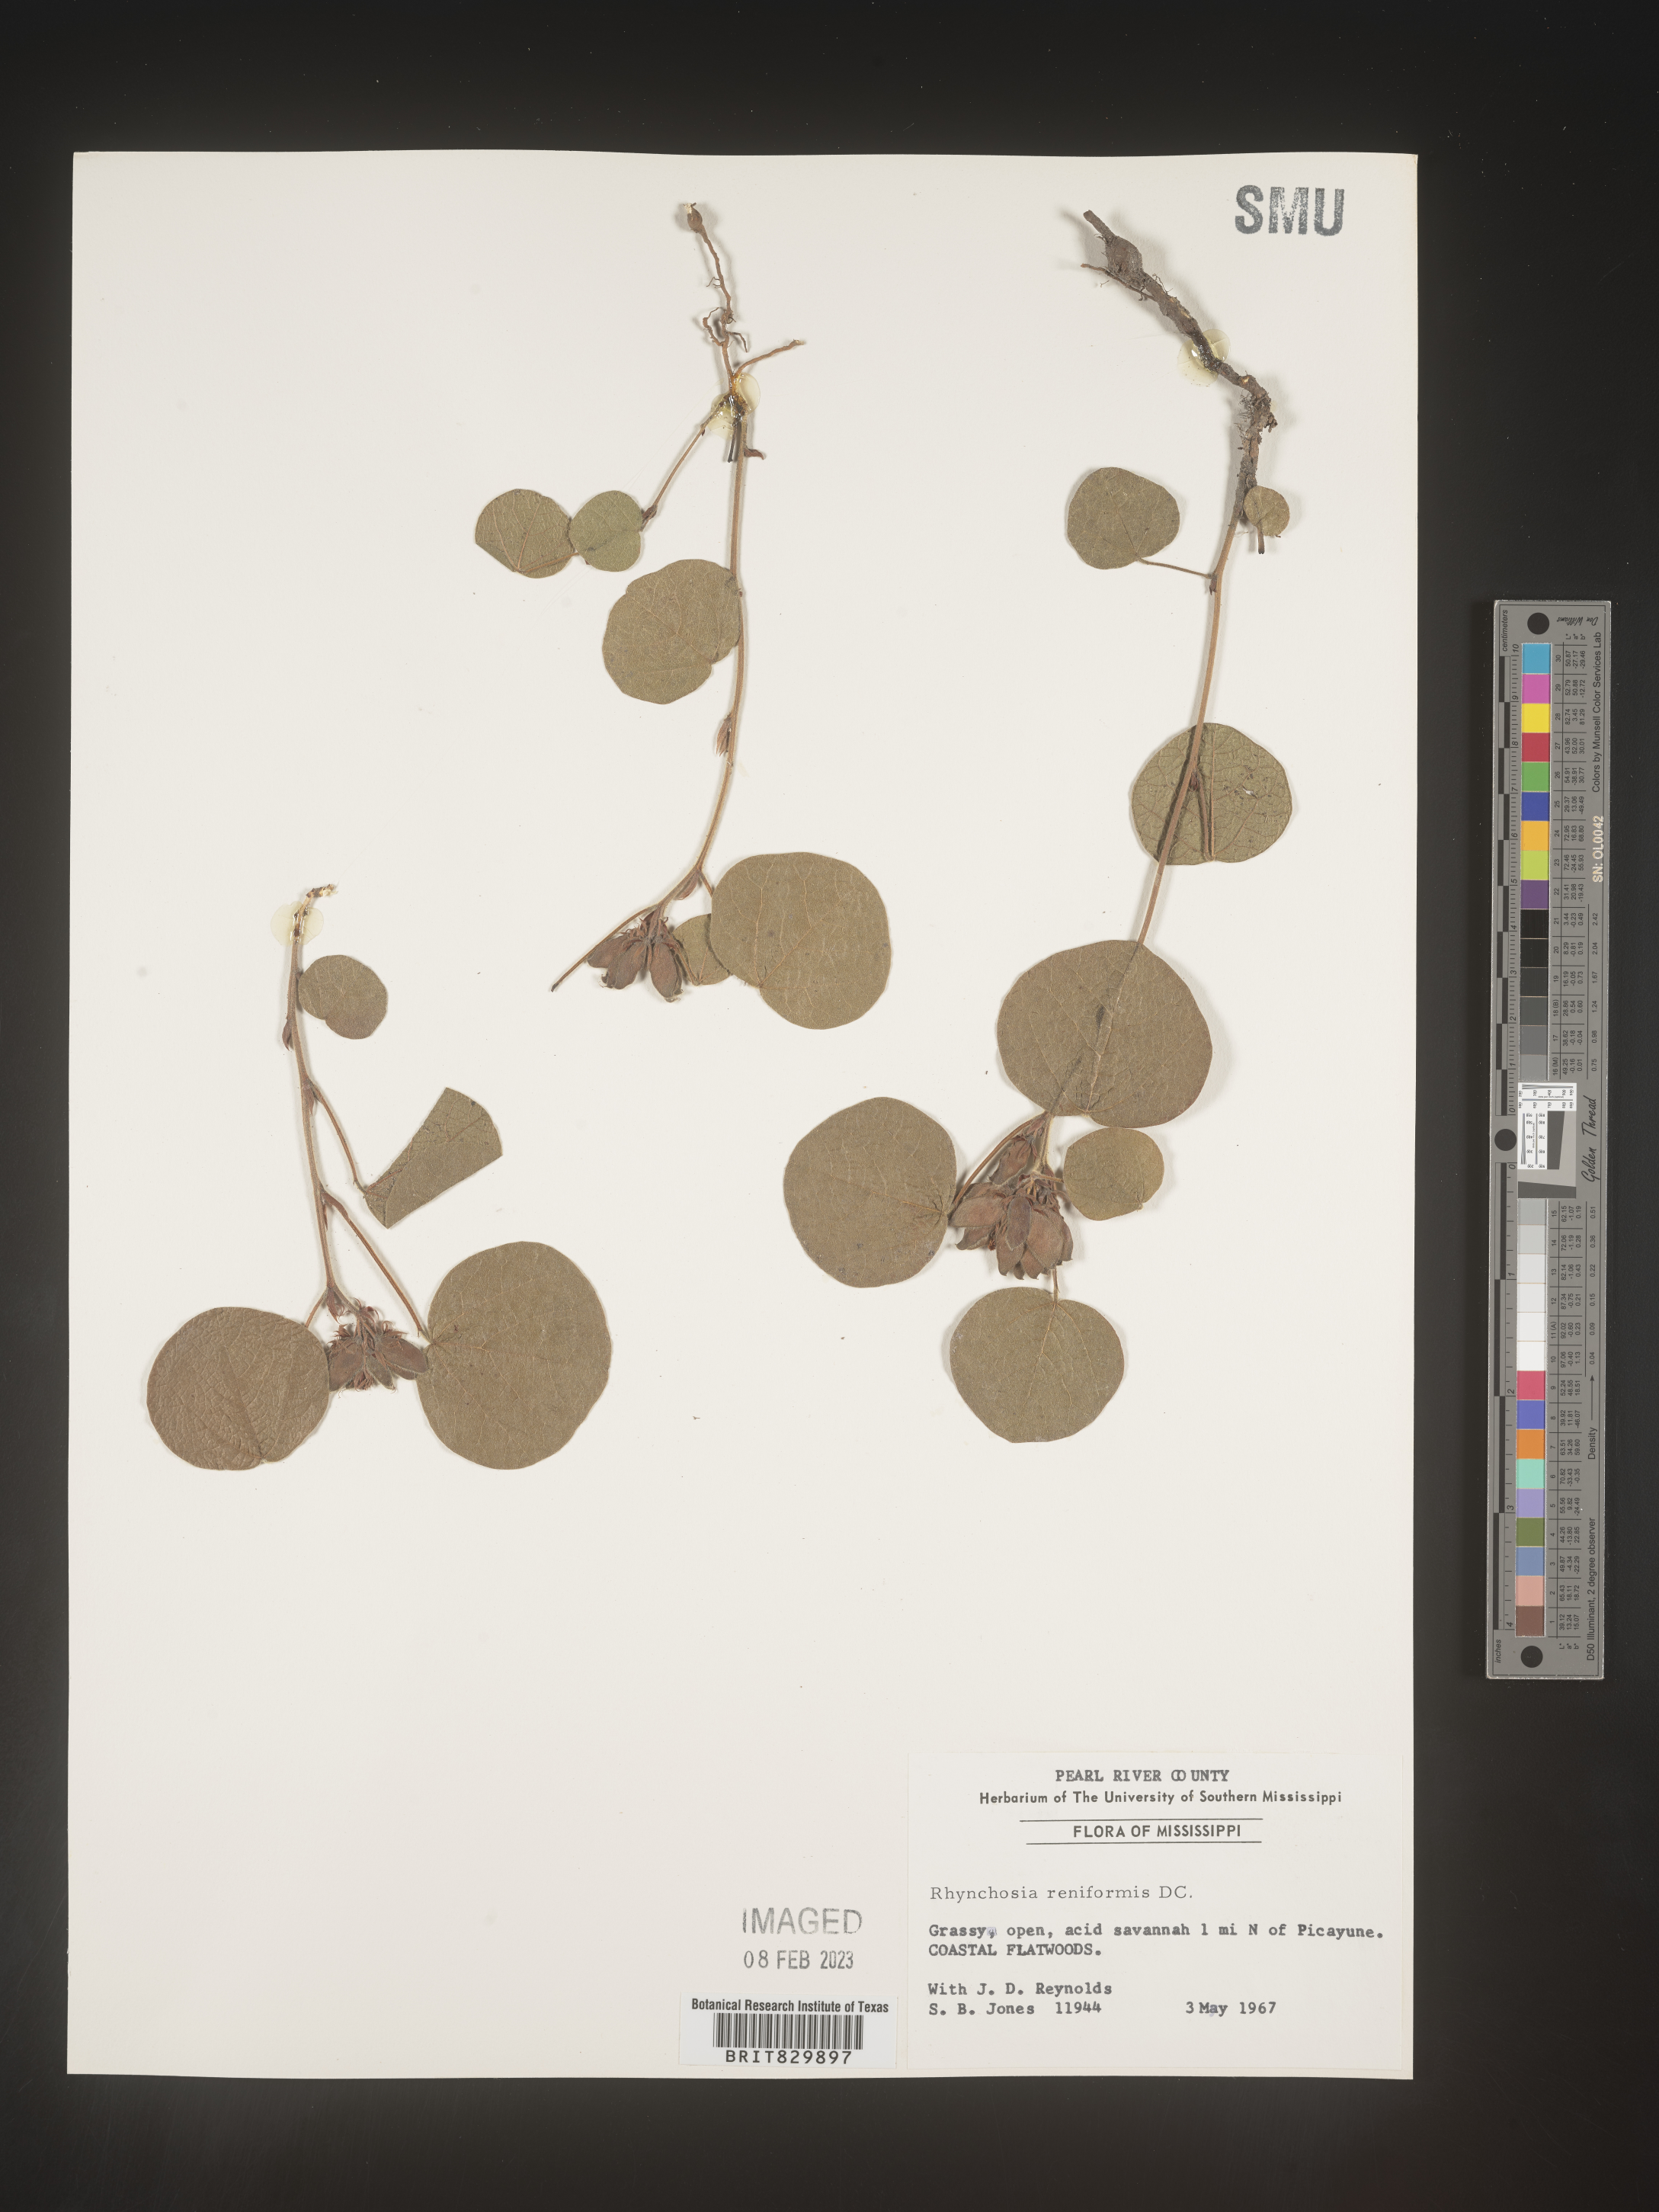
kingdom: Plantae
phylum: Tracheophyta
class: Magnoliopsida
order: Fabales
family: Fabaceae
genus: Rhynchosia
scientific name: Rhynchosia reniformis
